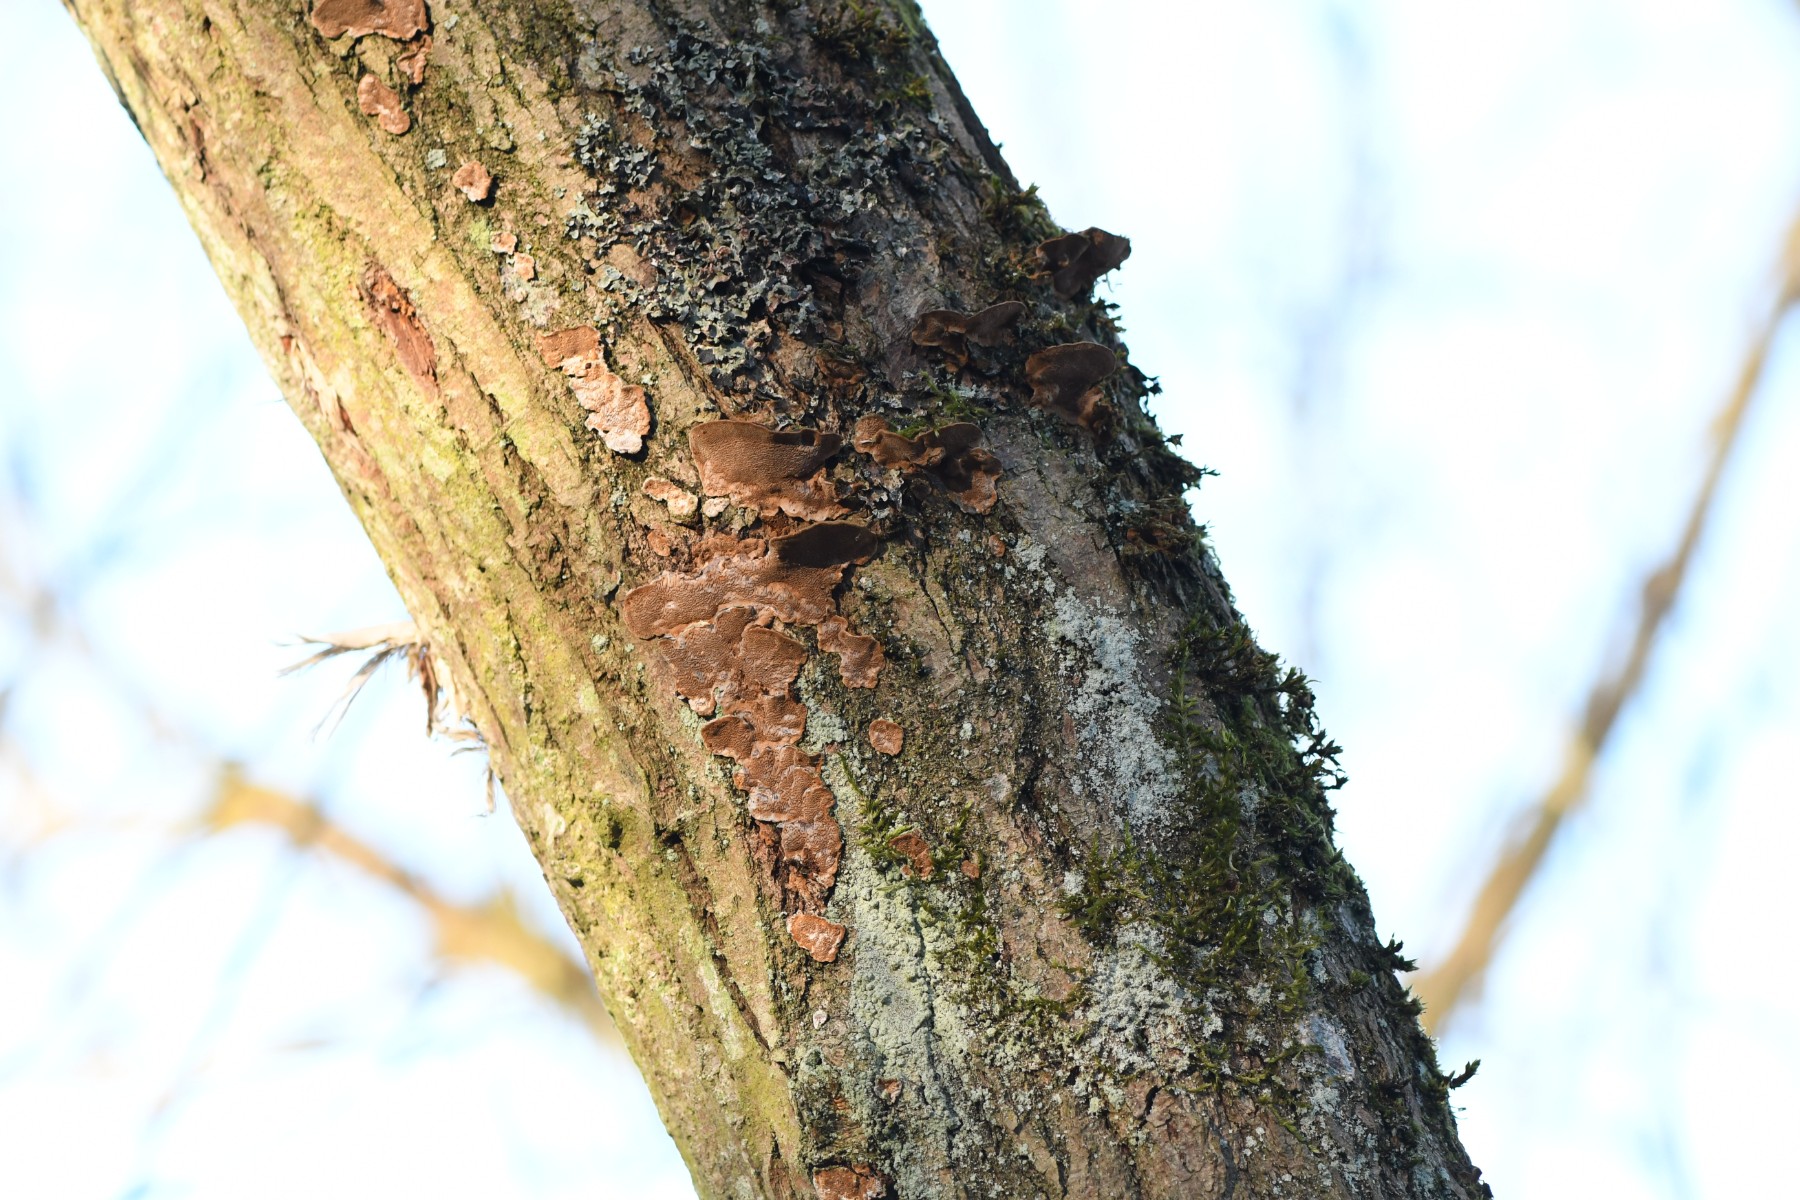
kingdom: Fungi
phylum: Basidiomycota
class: Agaricomycetes
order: Hymenochaetales
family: Hymenochaetaceae
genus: Phellinopsis
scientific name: Phellinopsis conchata
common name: pile-ildporesvamp
